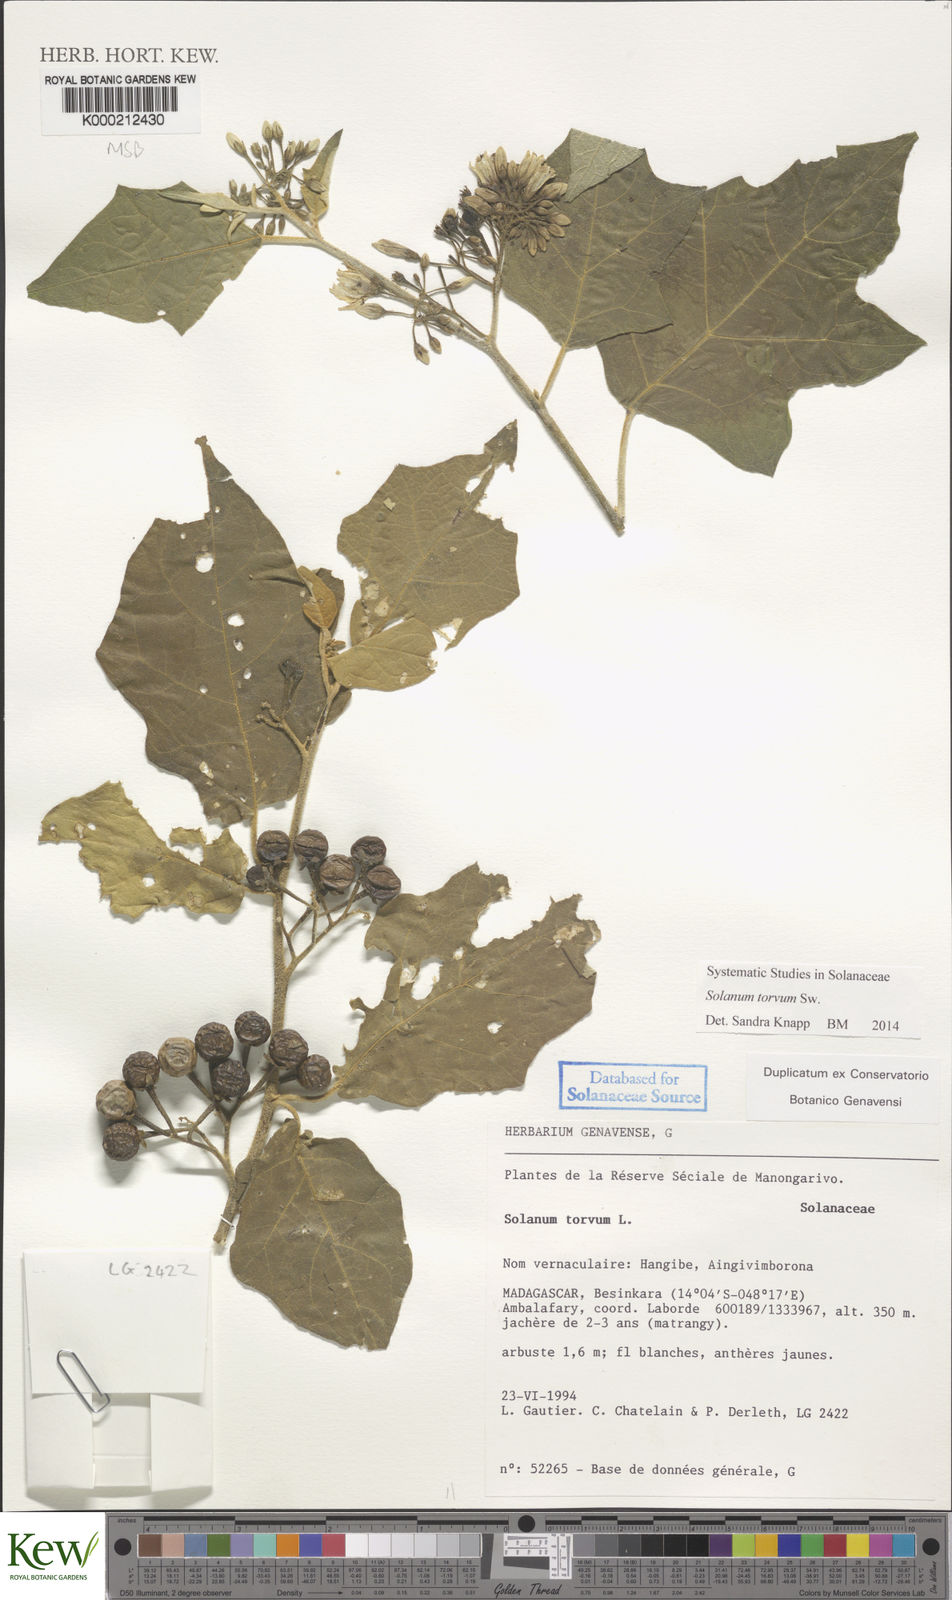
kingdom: Plantae
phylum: Tracheophyta
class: Magnoliopsida
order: Solanales
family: Solanaceae
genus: Solanum
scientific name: Solanum torvum
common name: Turkey berry
